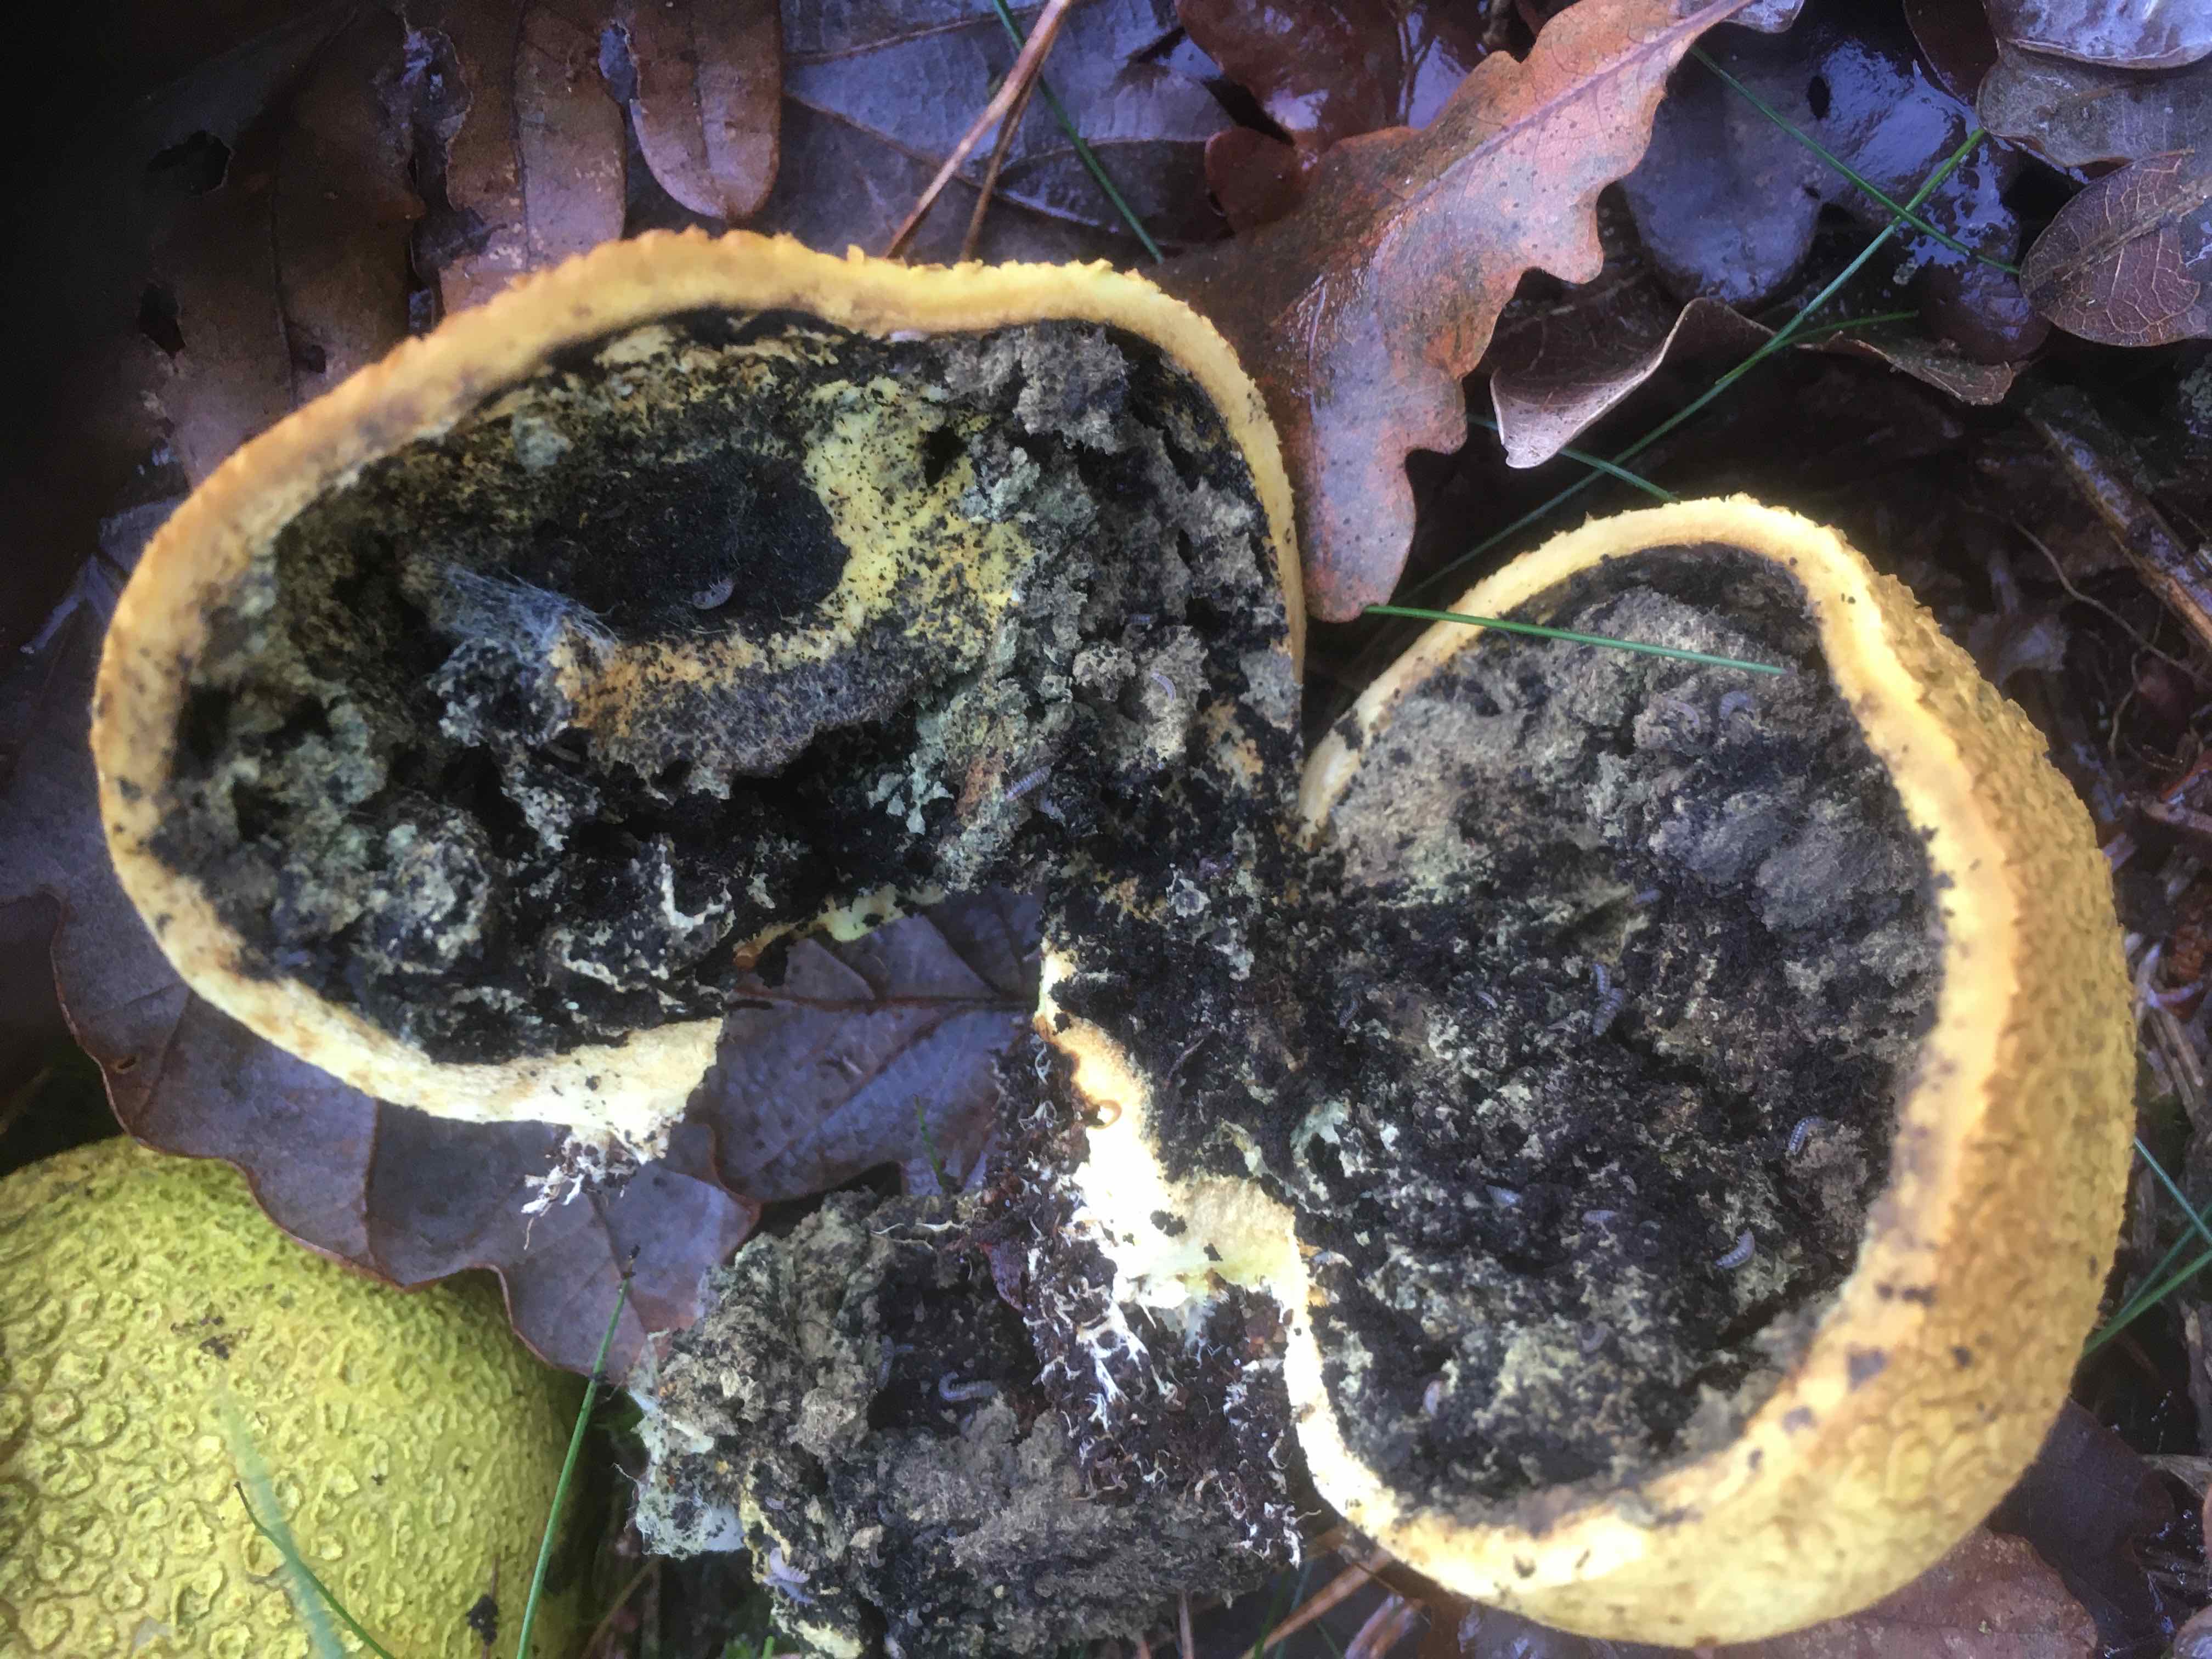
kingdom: Fungi
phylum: Basidiomycota
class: Agaricomycetes
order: Boletales
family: Sclerodermataceae
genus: Scleroderma
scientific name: Scleroderma citrinum
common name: almindelig bruskbold
